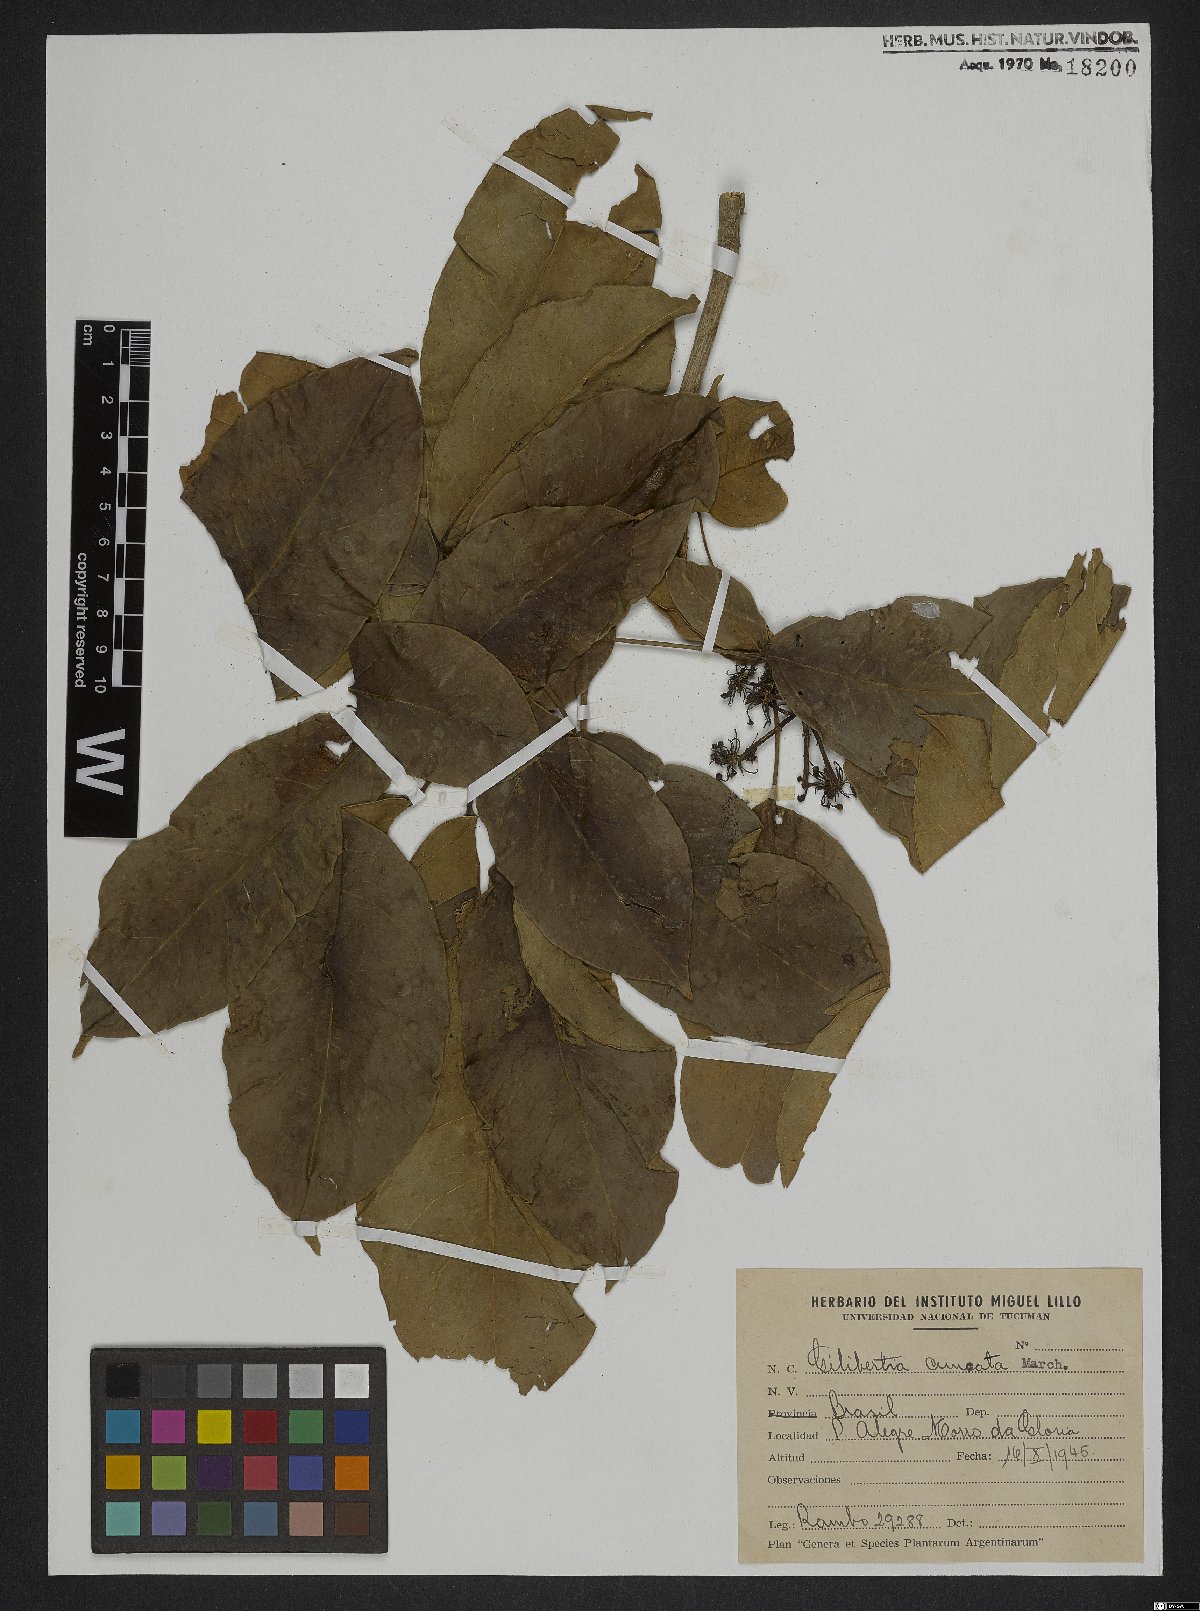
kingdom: Plantae
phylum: Tracheophyta
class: Magnoliopsida
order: Apiales
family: Araliaceae
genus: Dendropanax
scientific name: Dendropanax cuneatus
